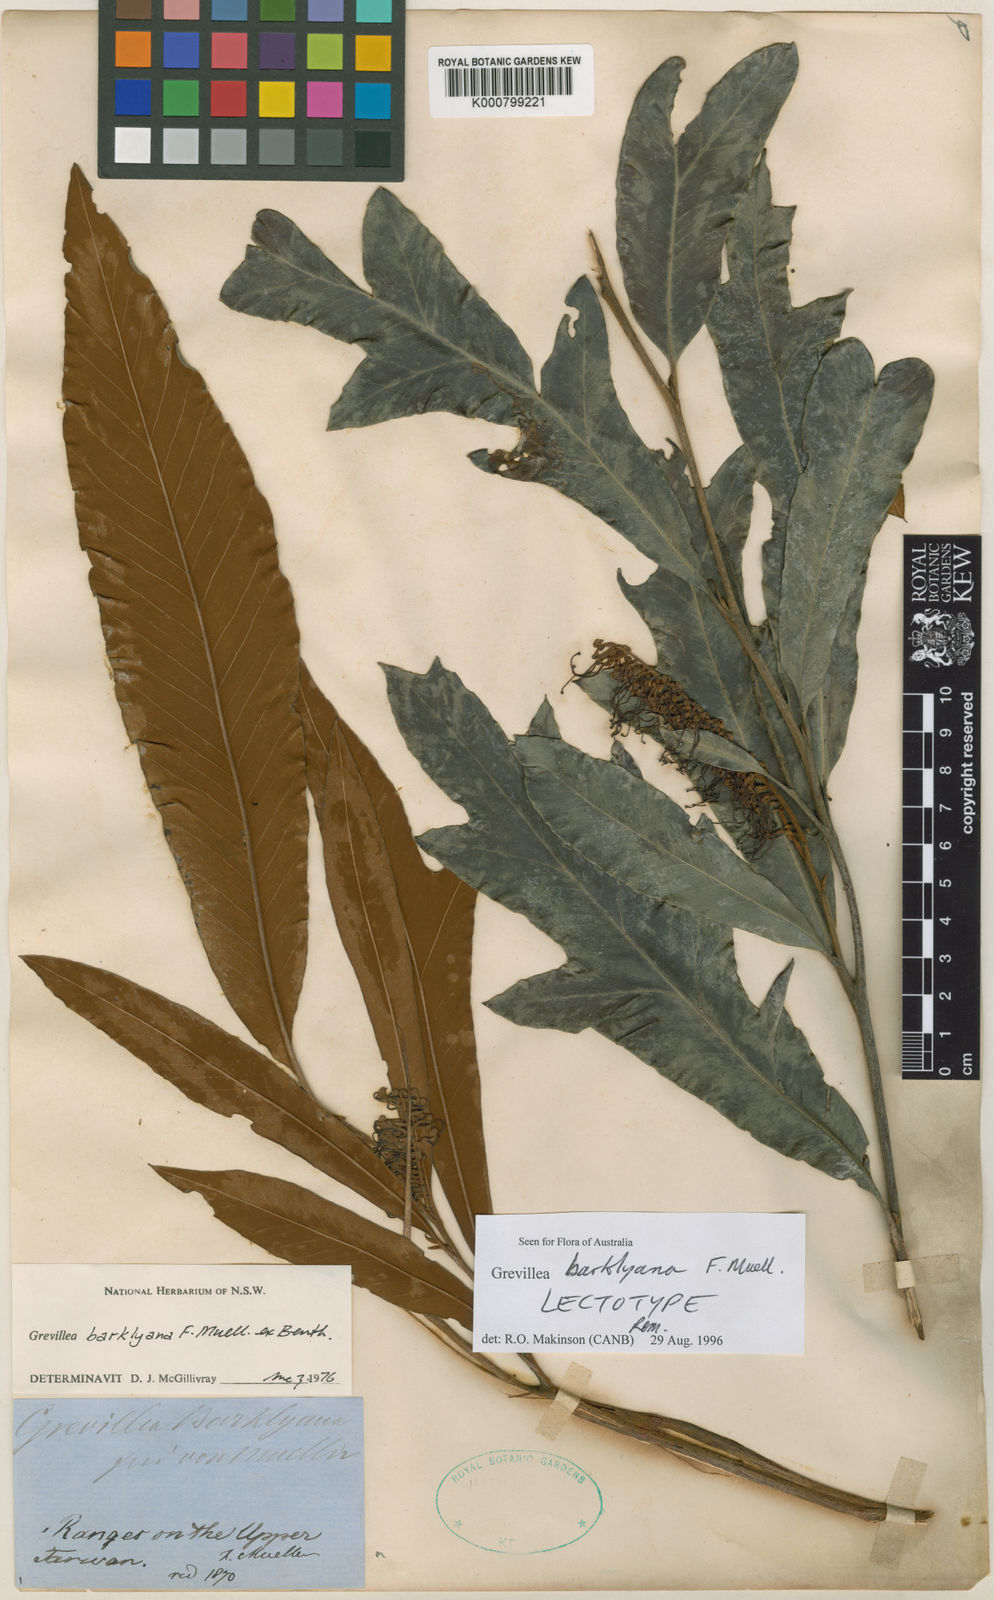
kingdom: Plantae
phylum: Tracheophyta
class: Magnoliopsida
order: Proteales
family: Proteaceae
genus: Grevillea
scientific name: Grevillea
